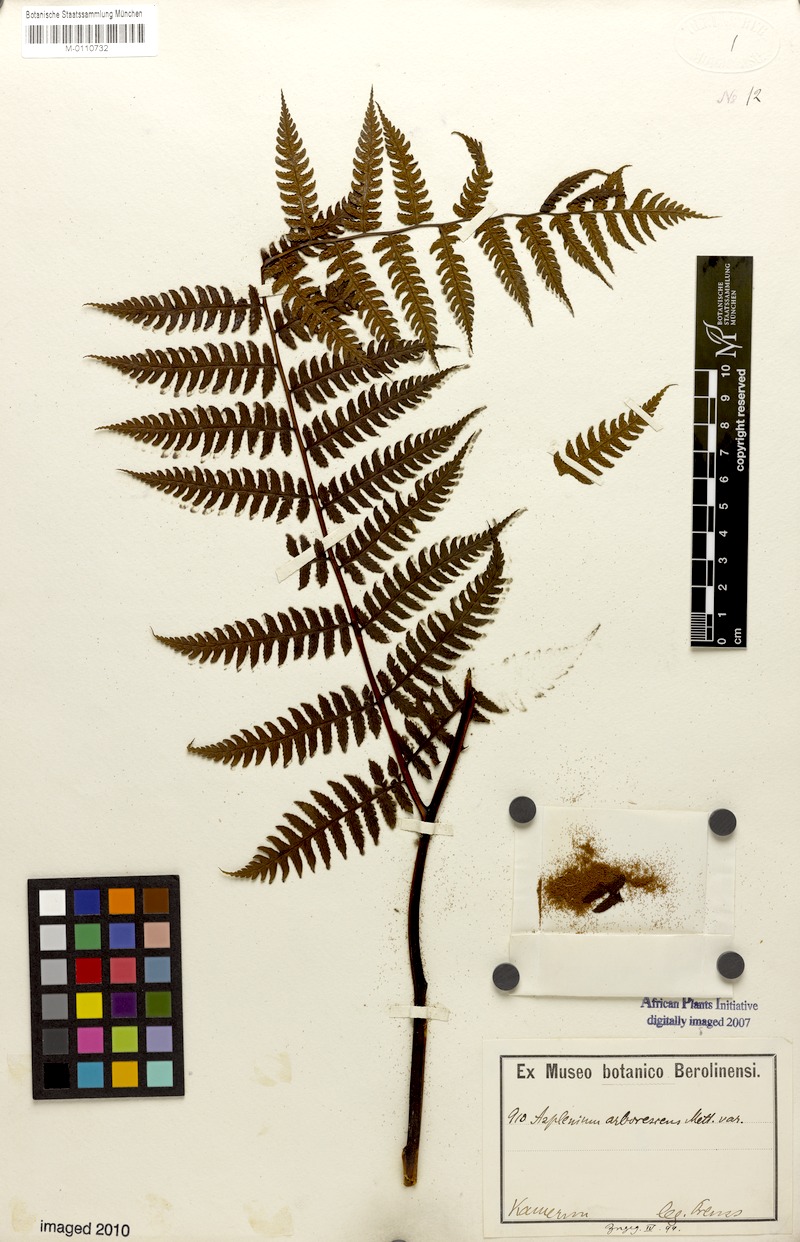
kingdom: Plantae
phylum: Tracheophyta
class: Polypodiopsida
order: Polypodiales
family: Athyriaceae
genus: Diplazium
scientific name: Diplazium arborescens
